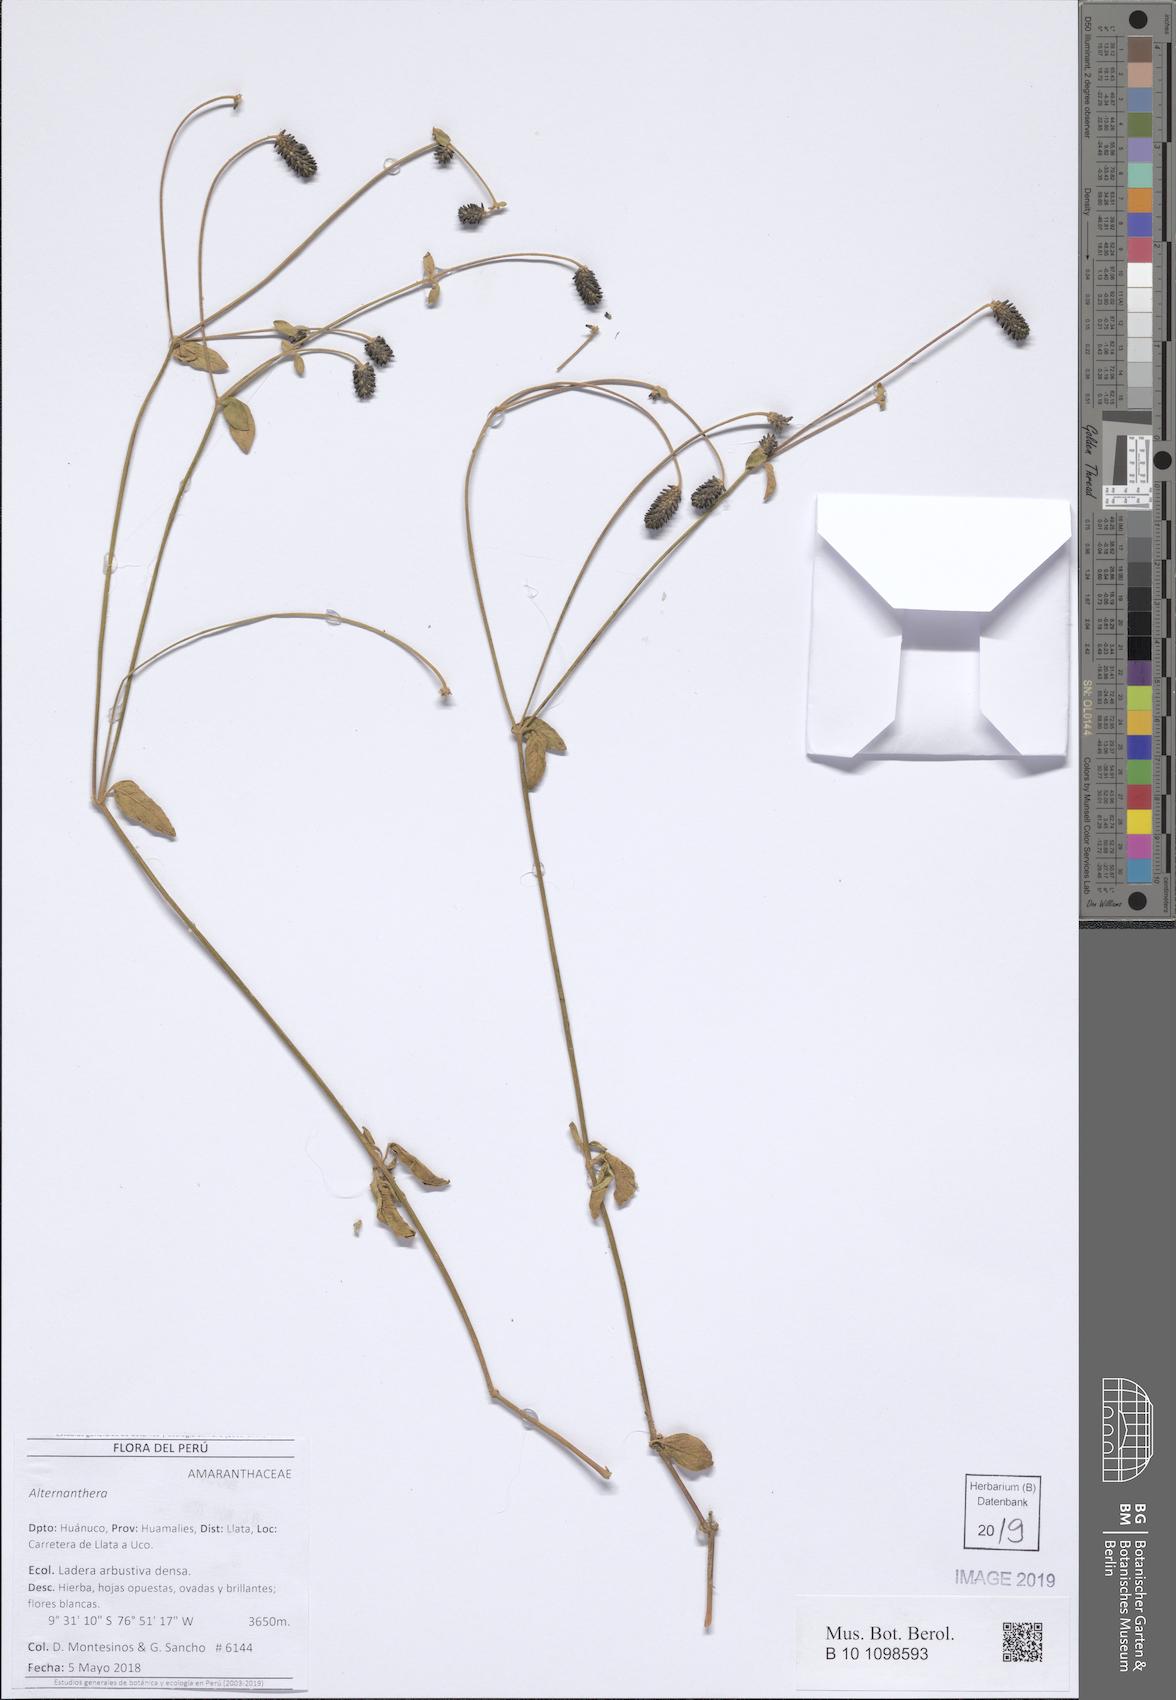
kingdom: Plantae
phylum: Tracheophyta
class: Magnoliopsida
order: Caryophyllales
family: Amaranthaceae
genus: Alternanthera
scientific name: Alternanthera
